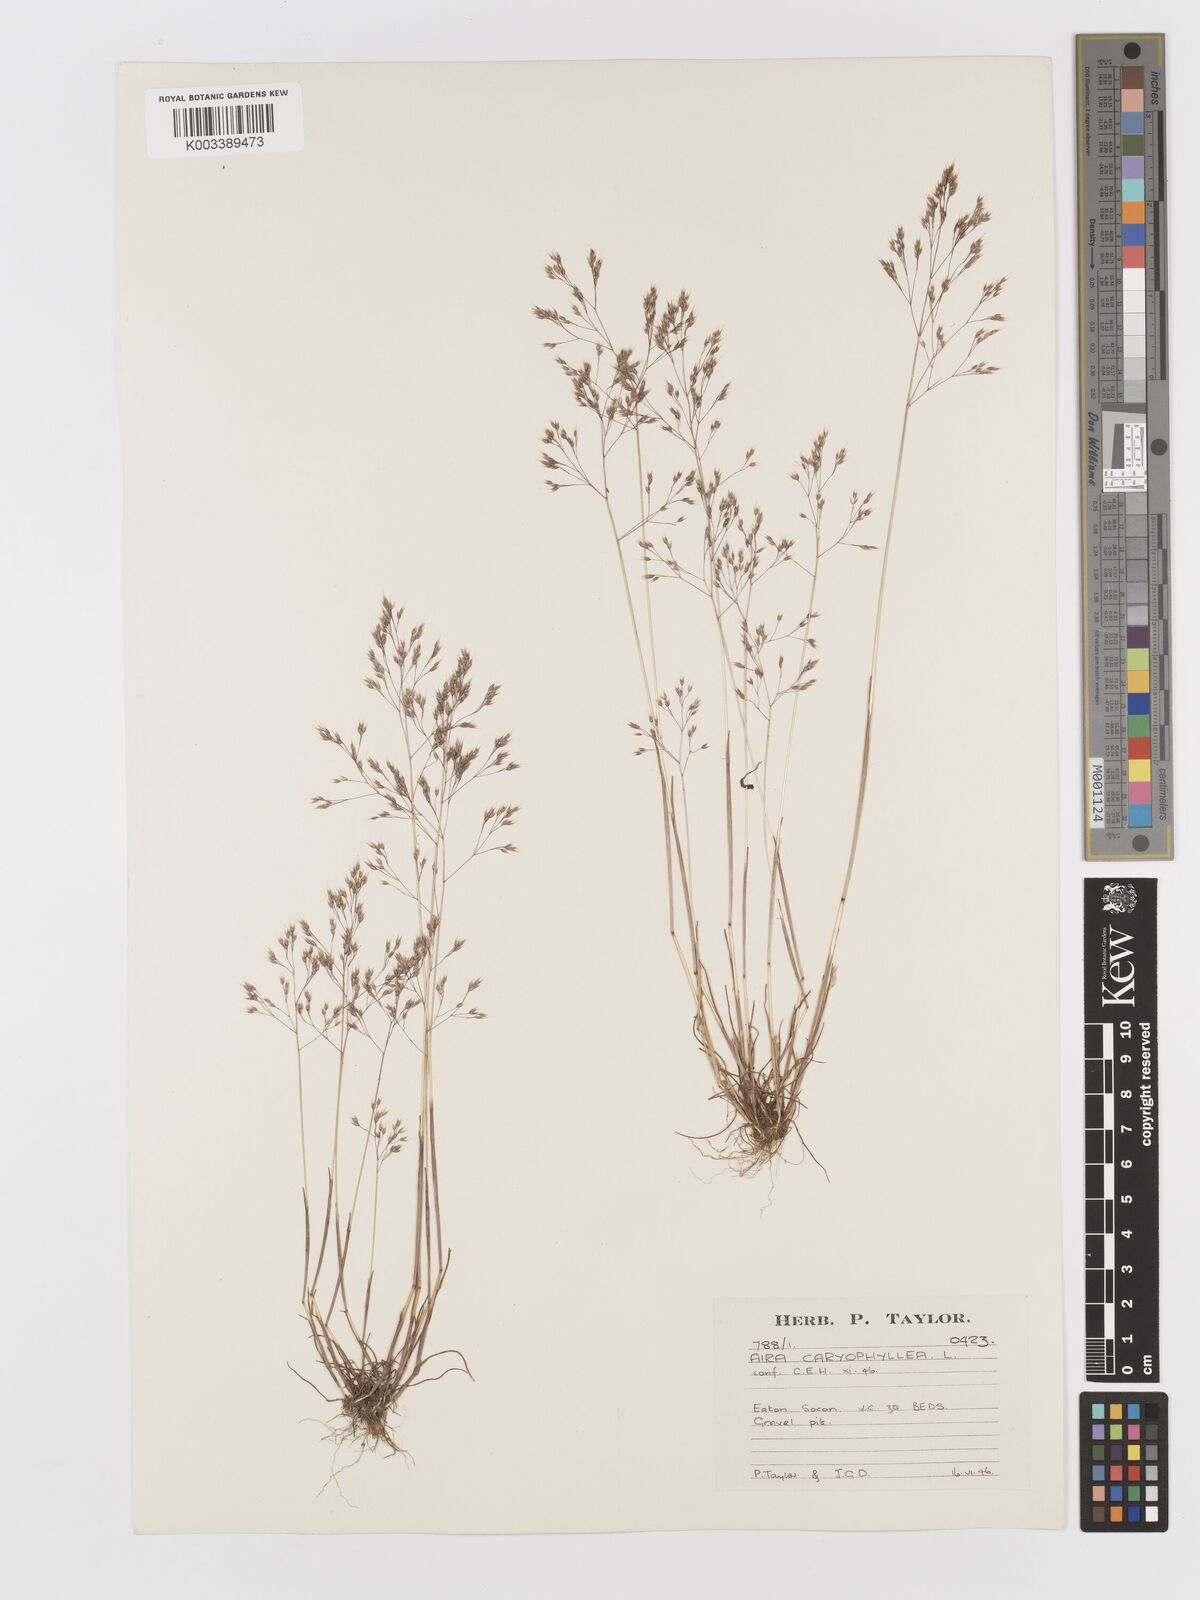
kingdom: Plantae
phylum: Tracheophyta
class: Liliopsida
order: Poales
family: Poaceae
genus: Aira
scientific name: Aira caryophyllea
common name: Silver hairgrass
